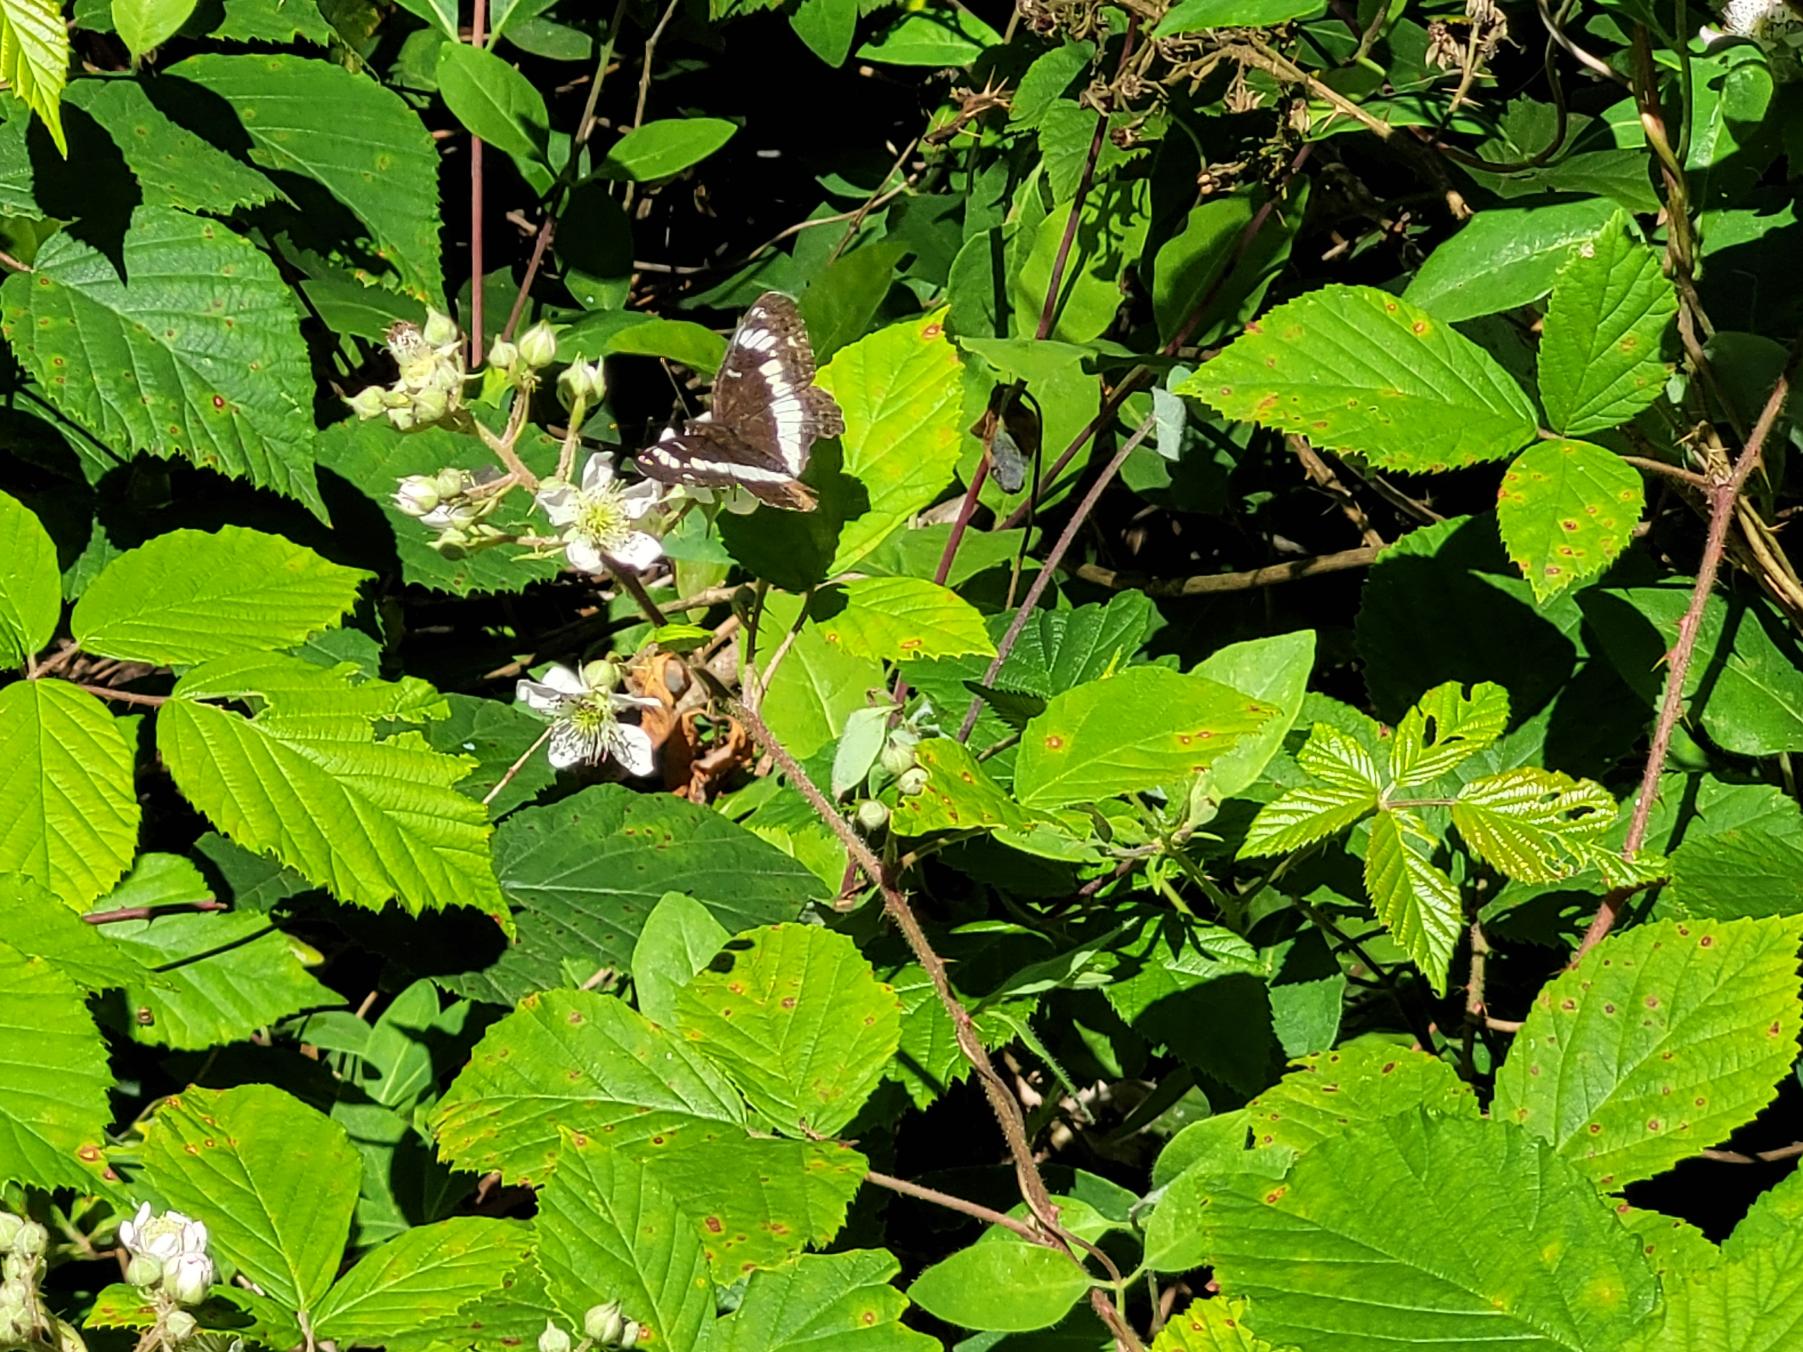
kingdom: Animalia
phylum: Arthropoda
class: Insecta
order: Lepidoptera
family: Nymphalidae
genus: Ladoga
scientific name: Ladoga camilla
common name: Hvid admiral
